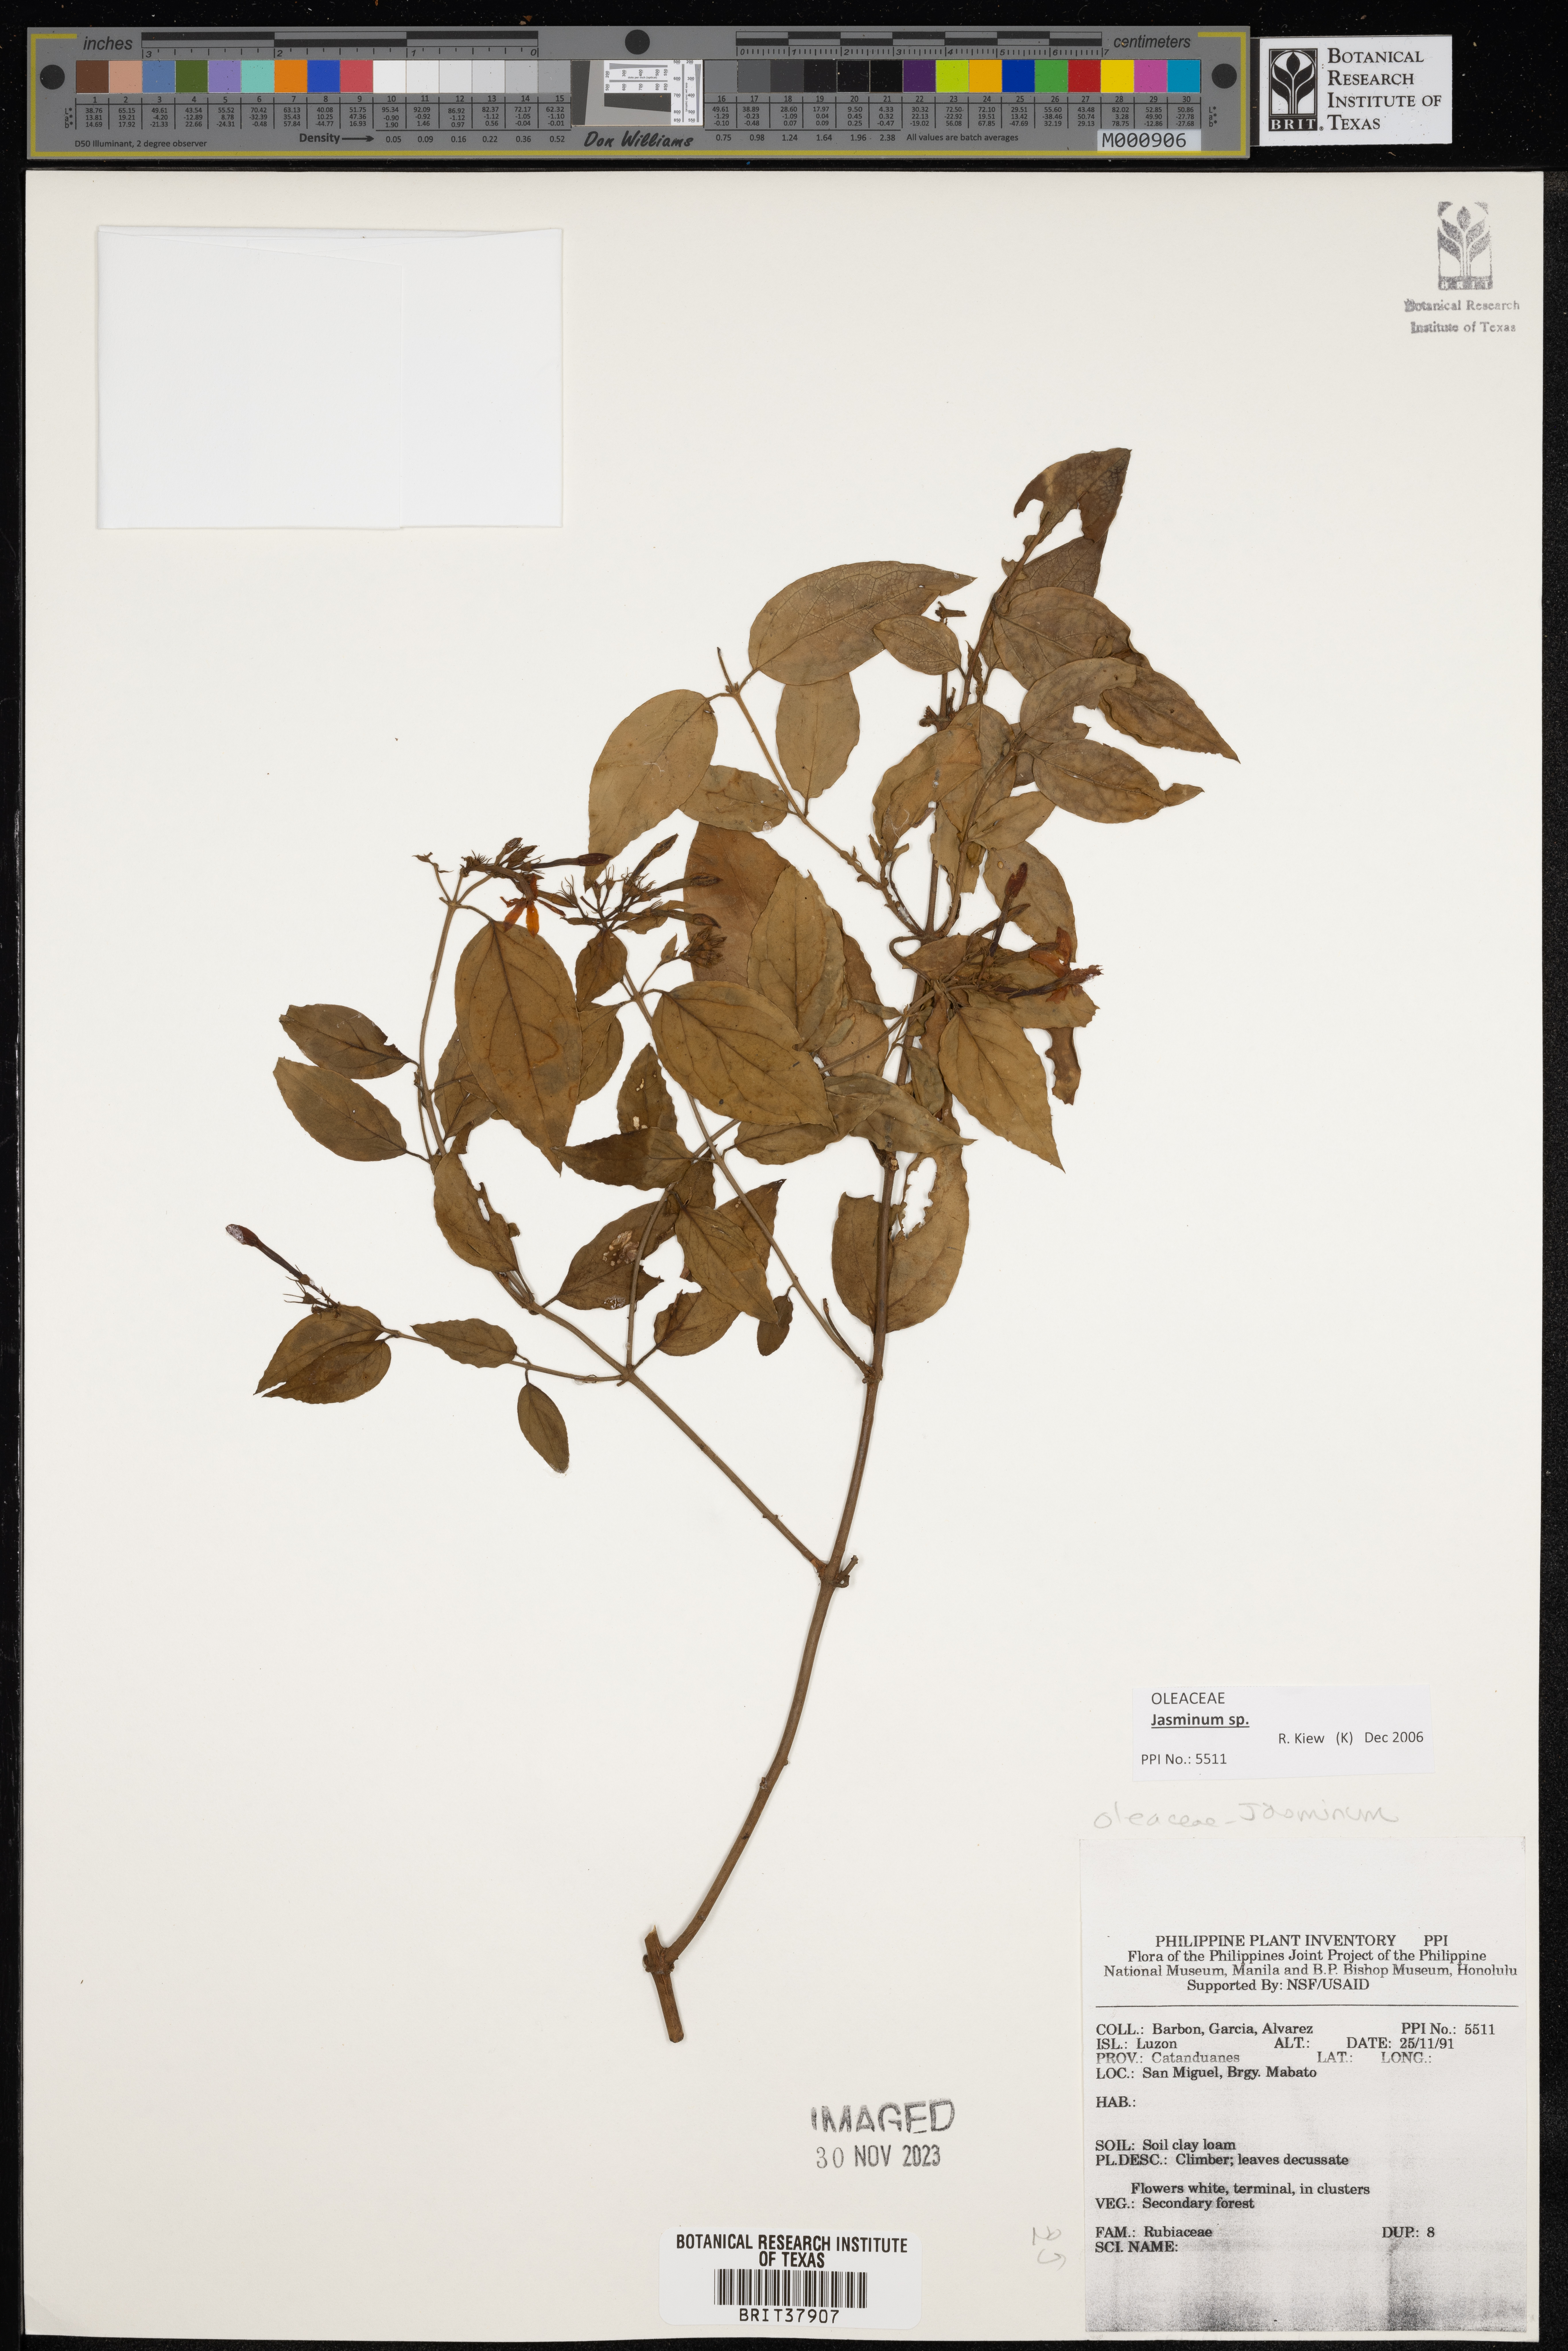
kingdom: Plantae
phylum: Tracheophyta
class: Magnoliopsida
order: Lamiales
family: Oleaceae
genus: Jasminum
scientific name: Jasminum
